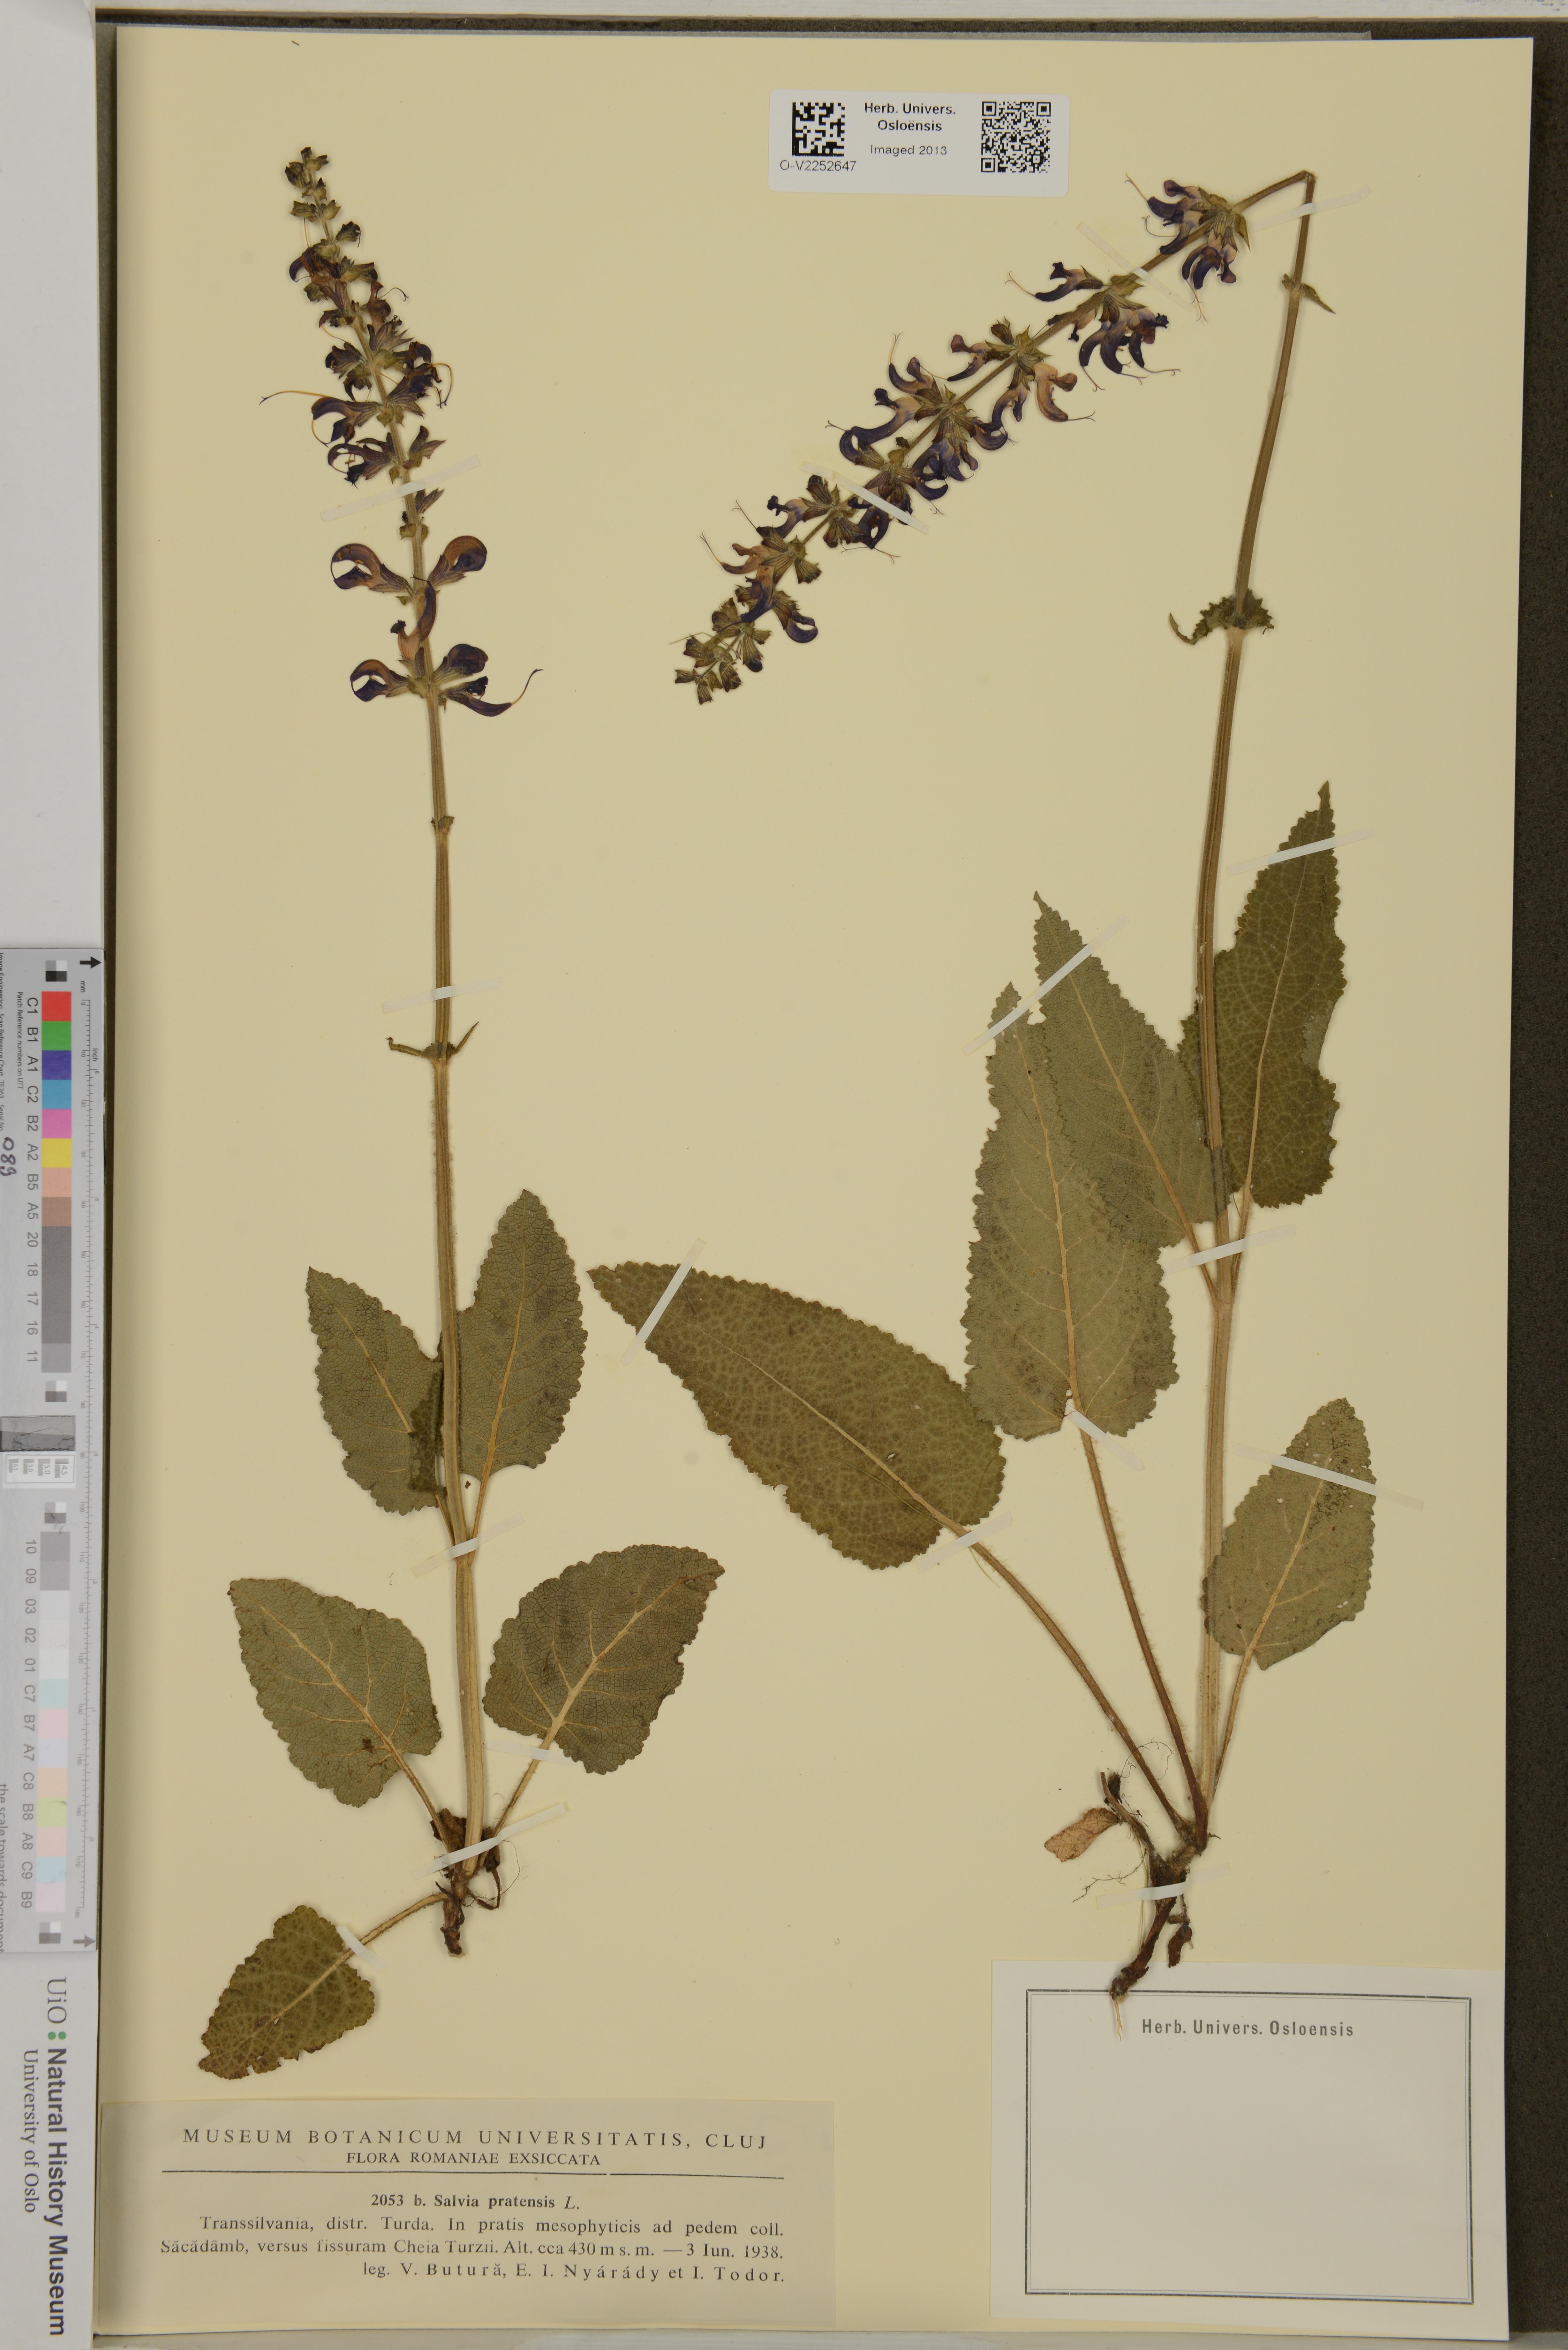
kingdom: Plantae
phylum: Tracheophyta
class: Magnoliopsida
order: Lamiales
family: Lamiaceae
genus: Salvia
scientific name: Salvia pratensis
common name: Meadow sage
